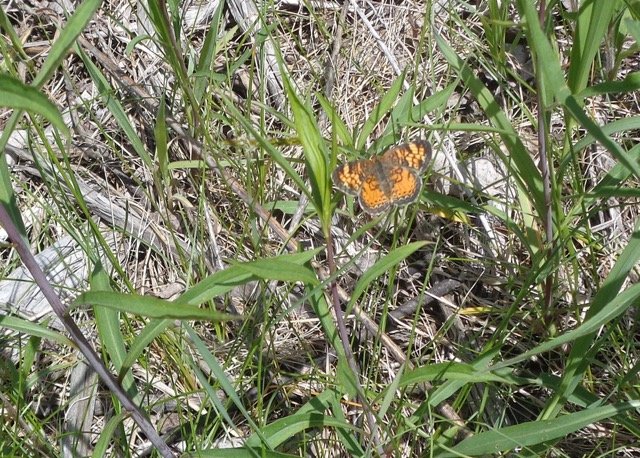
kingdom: Animalia
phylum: Arthropoda
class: Insecta
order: Lepidoptera
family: Nymphalidae
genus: Phyciodes
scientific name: Phyciodes tharos
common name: Pearl Crescent
